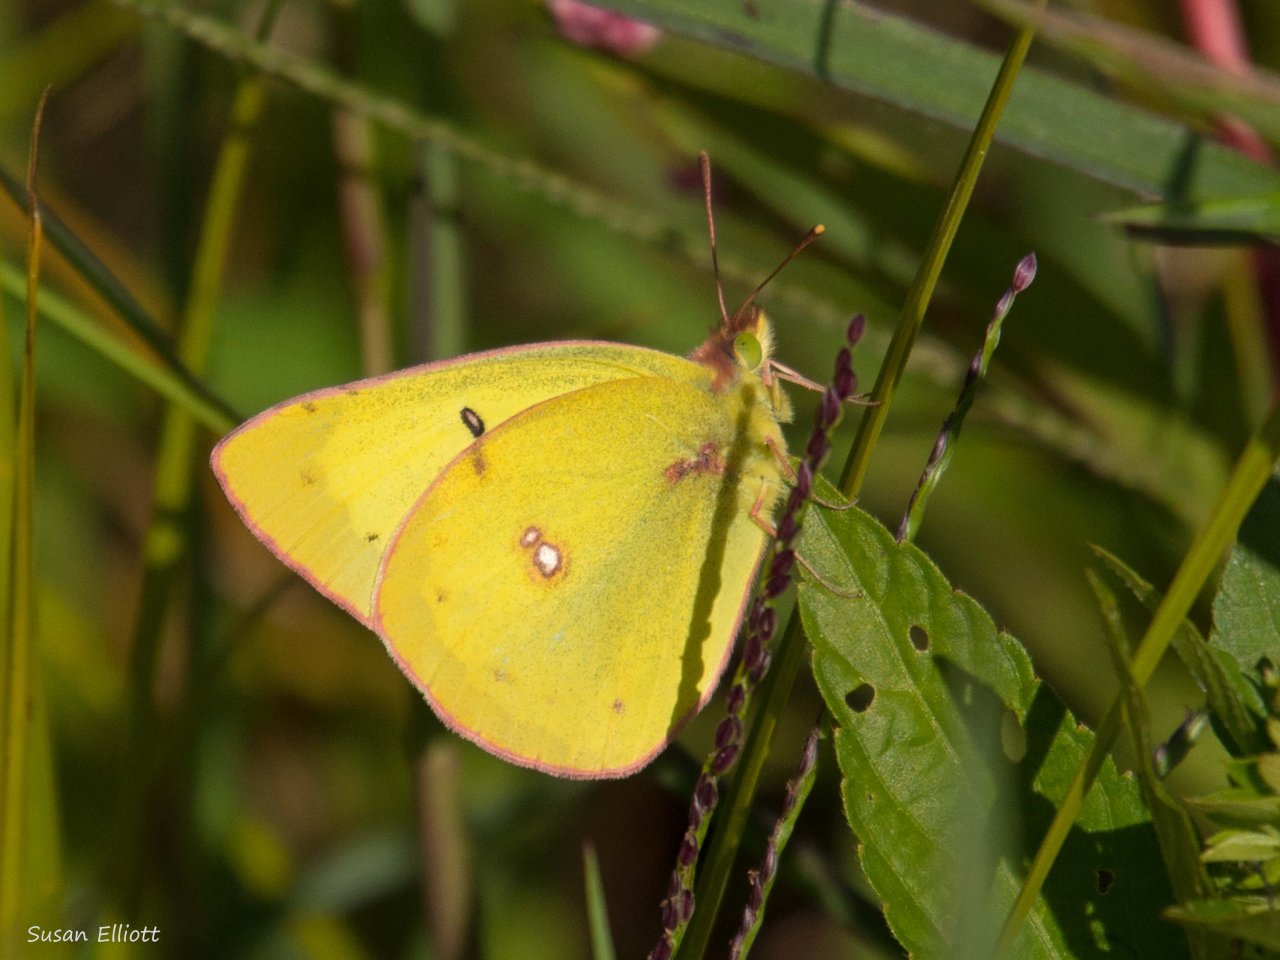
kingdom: Animalia
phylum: Arthropoda
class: Insecta
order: Lepidoptera
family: Pieridae
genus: Colias
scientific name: Colias
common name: Clouded Yellows
